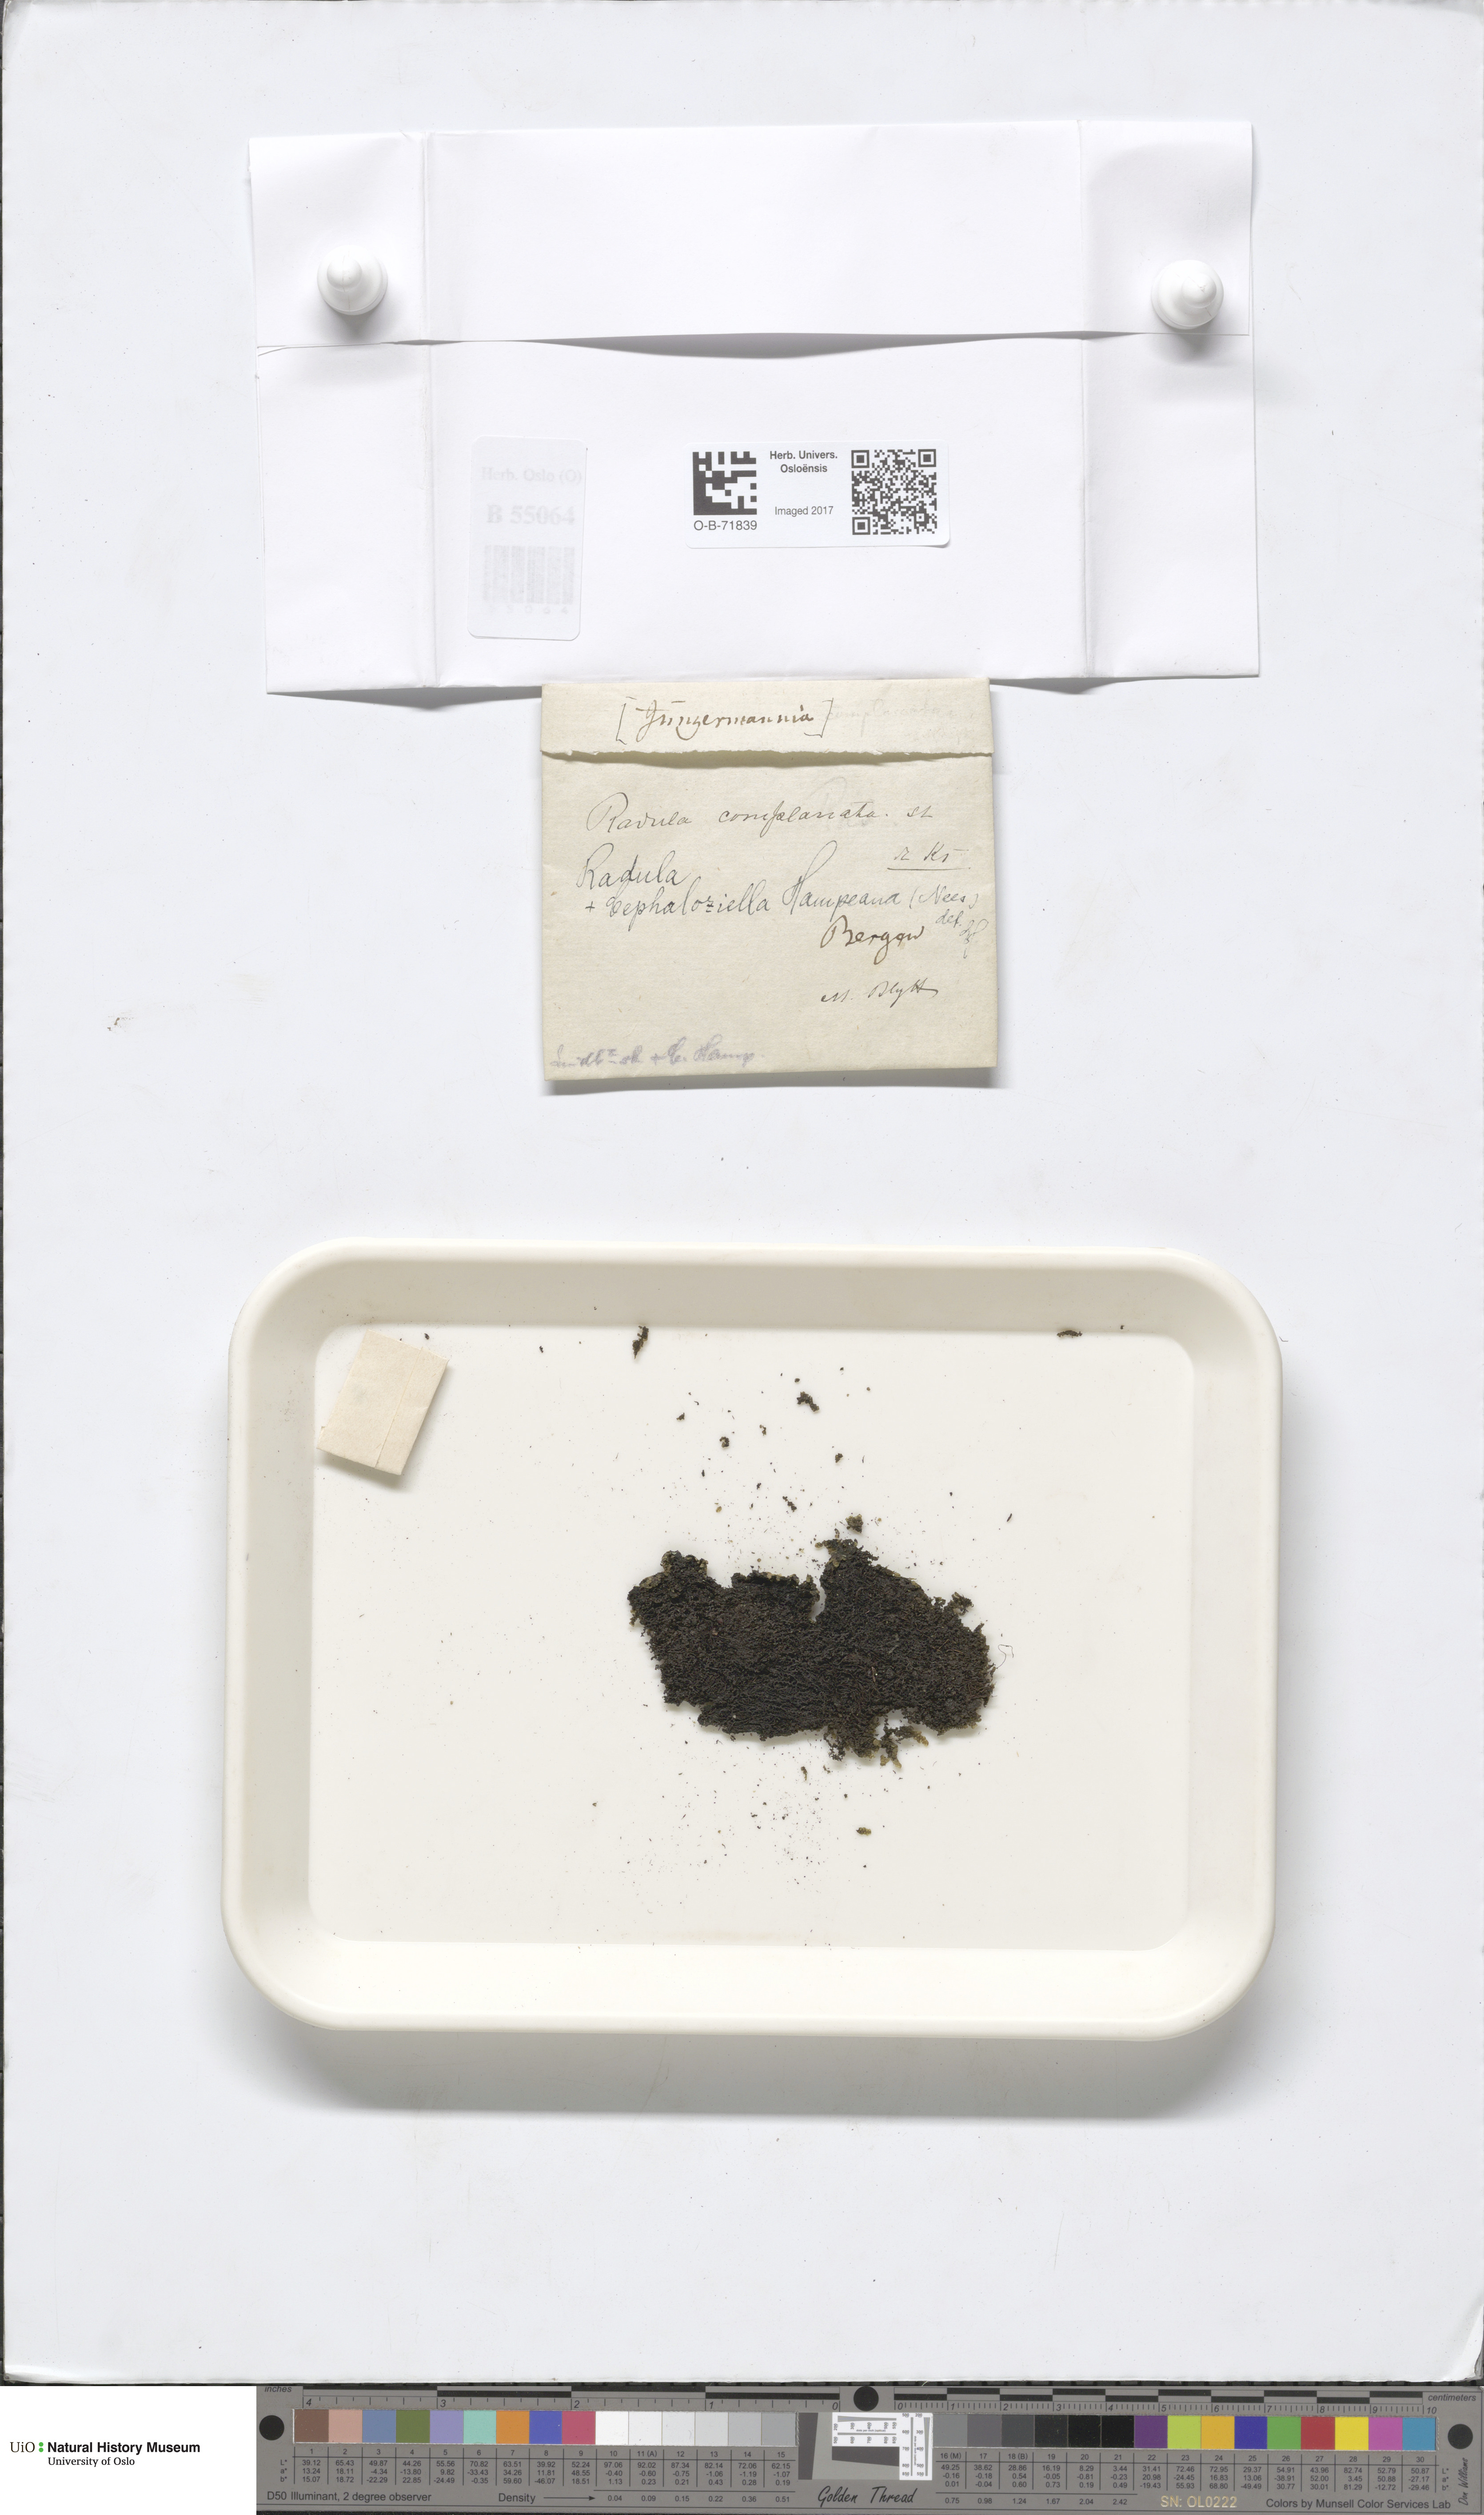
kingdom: Plantae
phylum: Marchantiophyta
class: Jungermanniopsida
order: Jungermanniales
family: Cephaloziellaceae
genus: Cephaloziella
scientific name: Cephaloziella hampeana
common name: Hampe s threadwort
